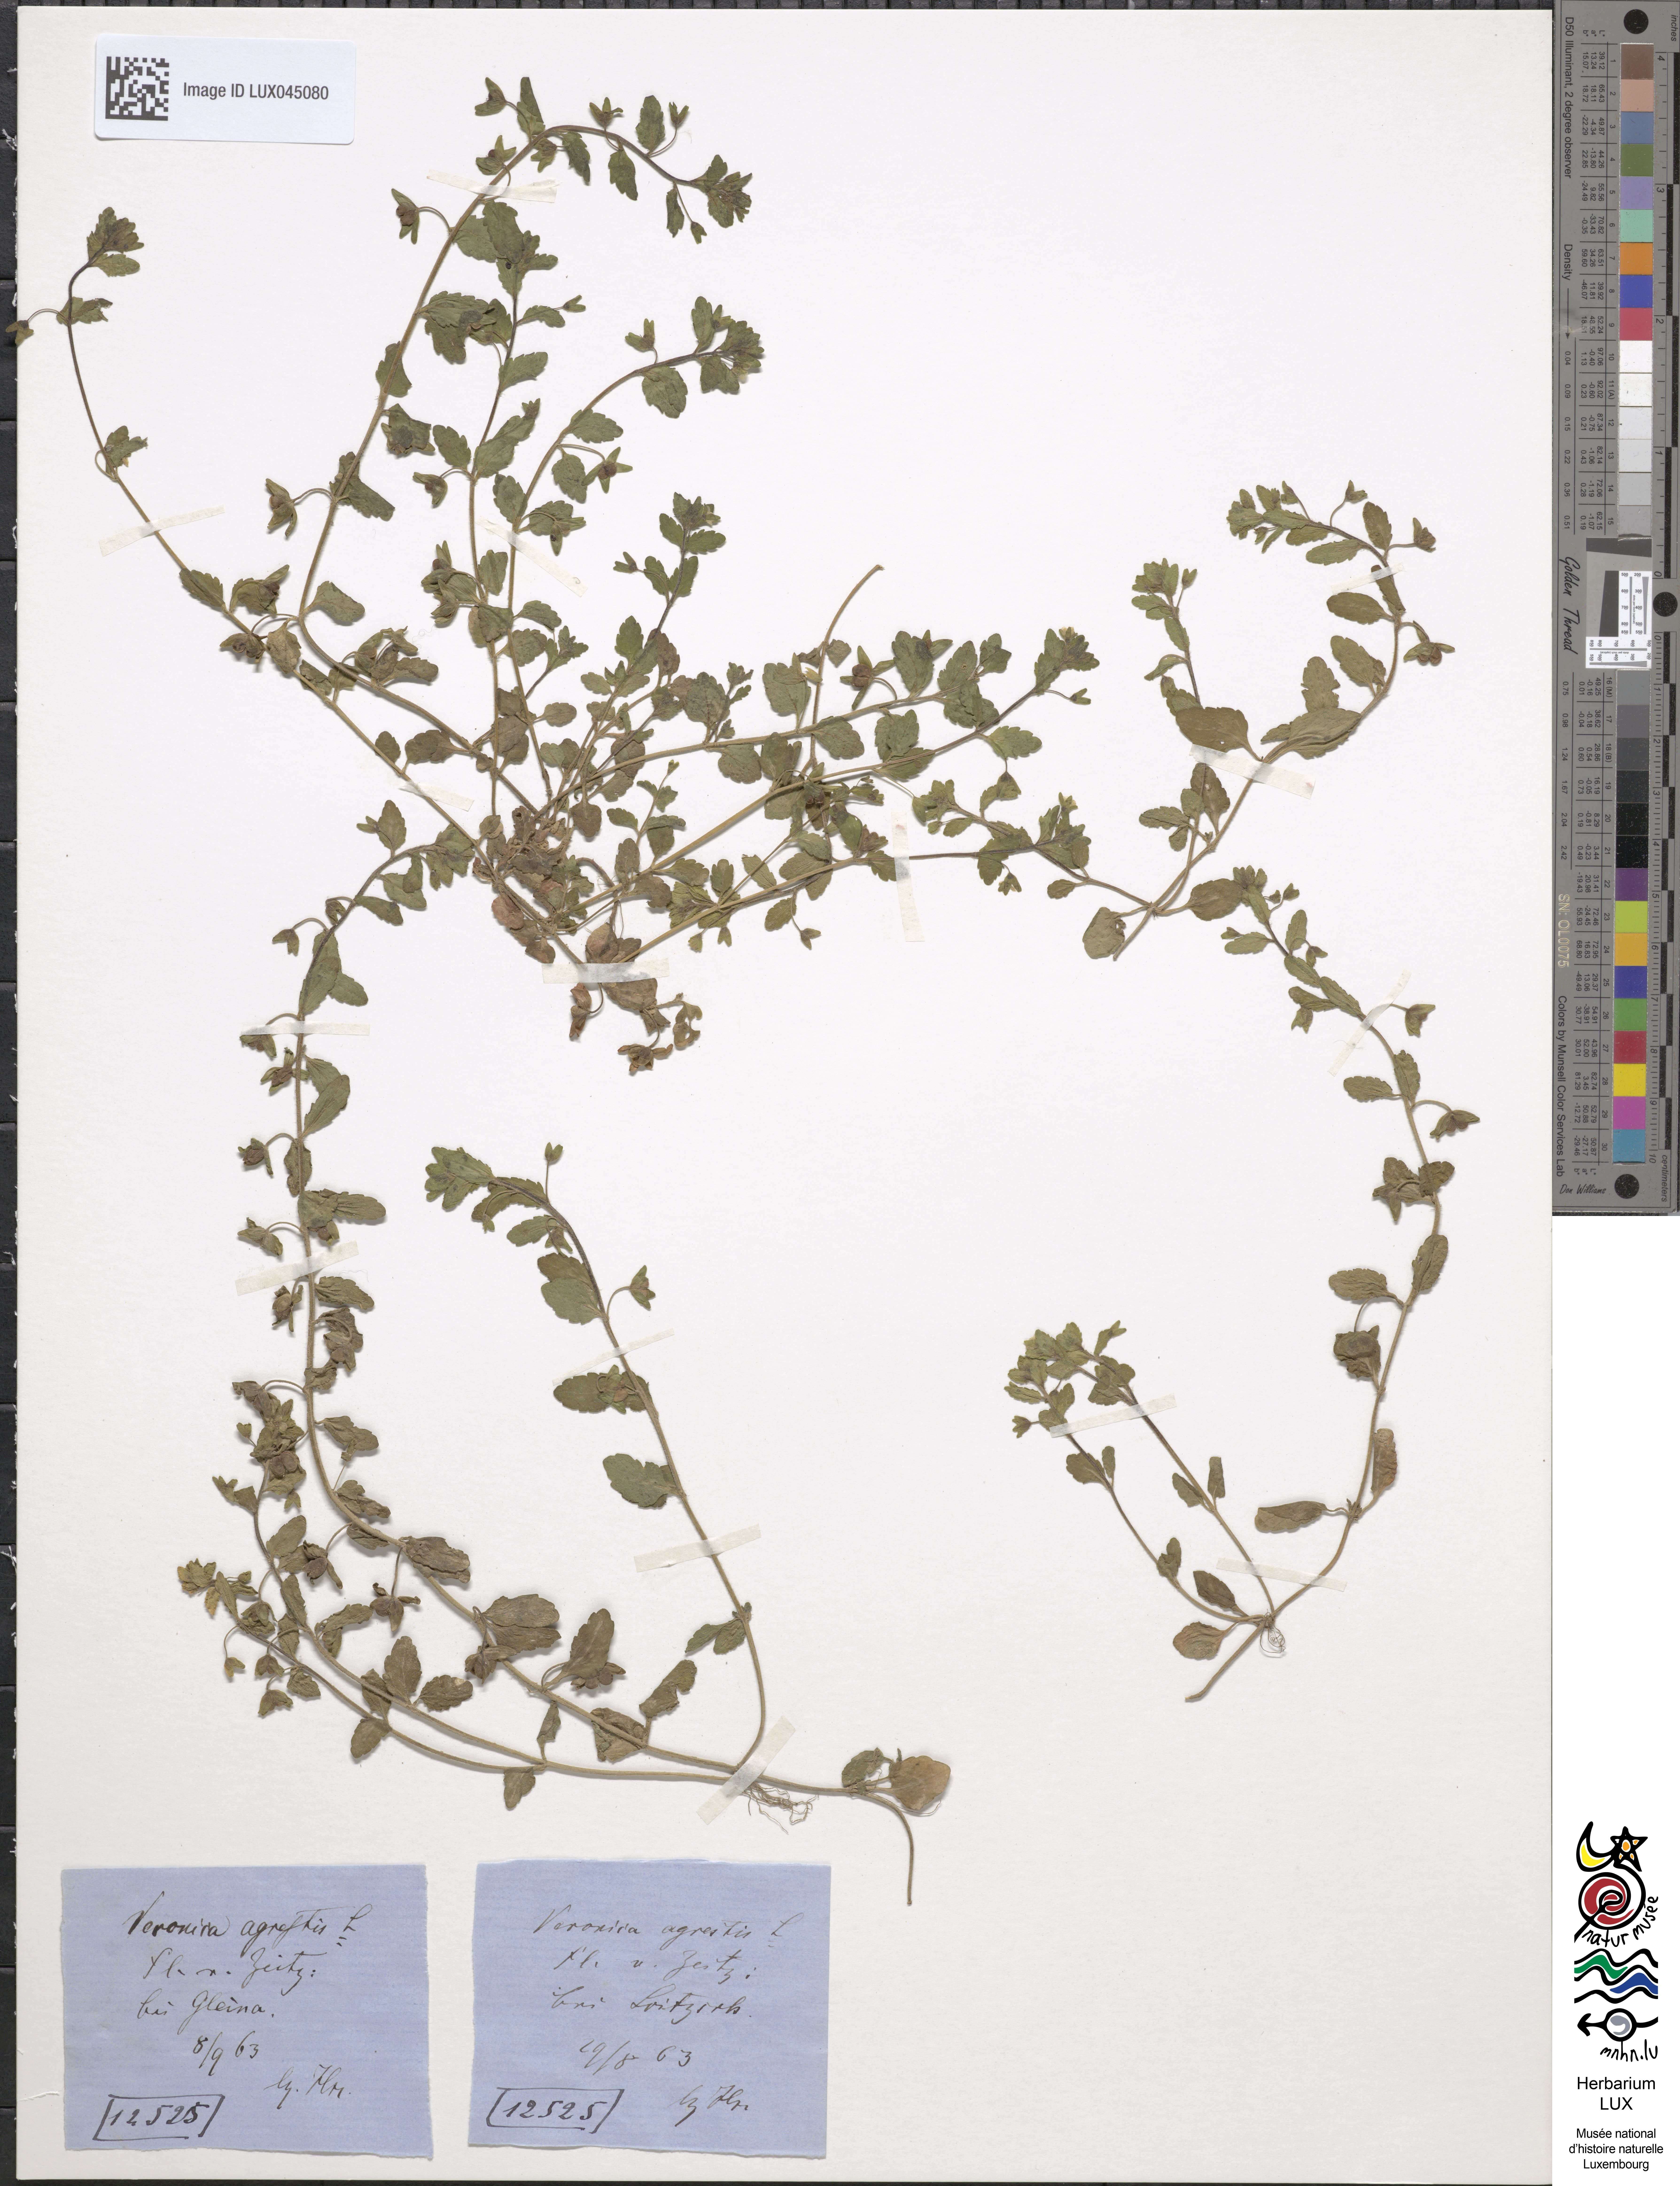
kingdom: Plantae
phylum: Tracheophyta
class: Magnoliopsida
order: Lamiales
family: Plantaginaceae
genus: Veronica
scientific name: Veronica agrestis
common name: Green field-speedwell
